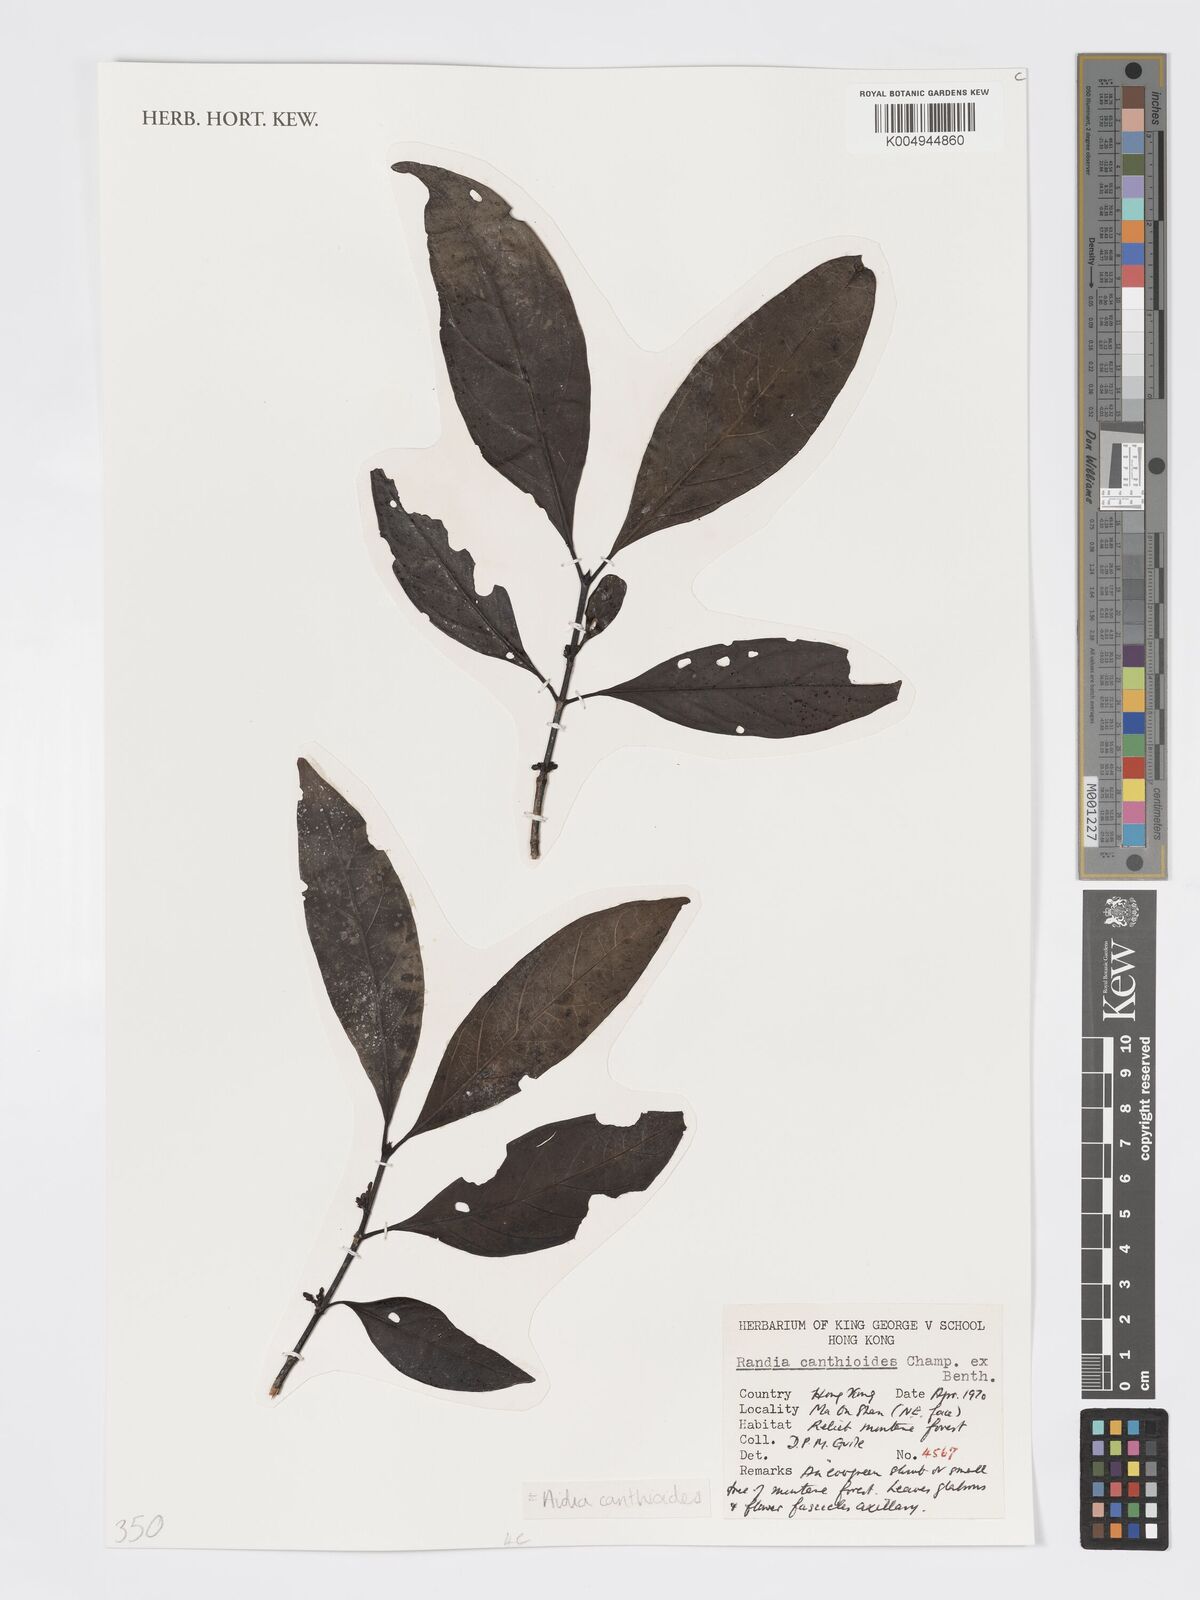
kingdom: Plantae
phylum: Tracheophyta
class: Magnoliopsida
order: Gentianales
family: Rubiaceae
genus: Aidia
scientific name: Aidia canthioides
